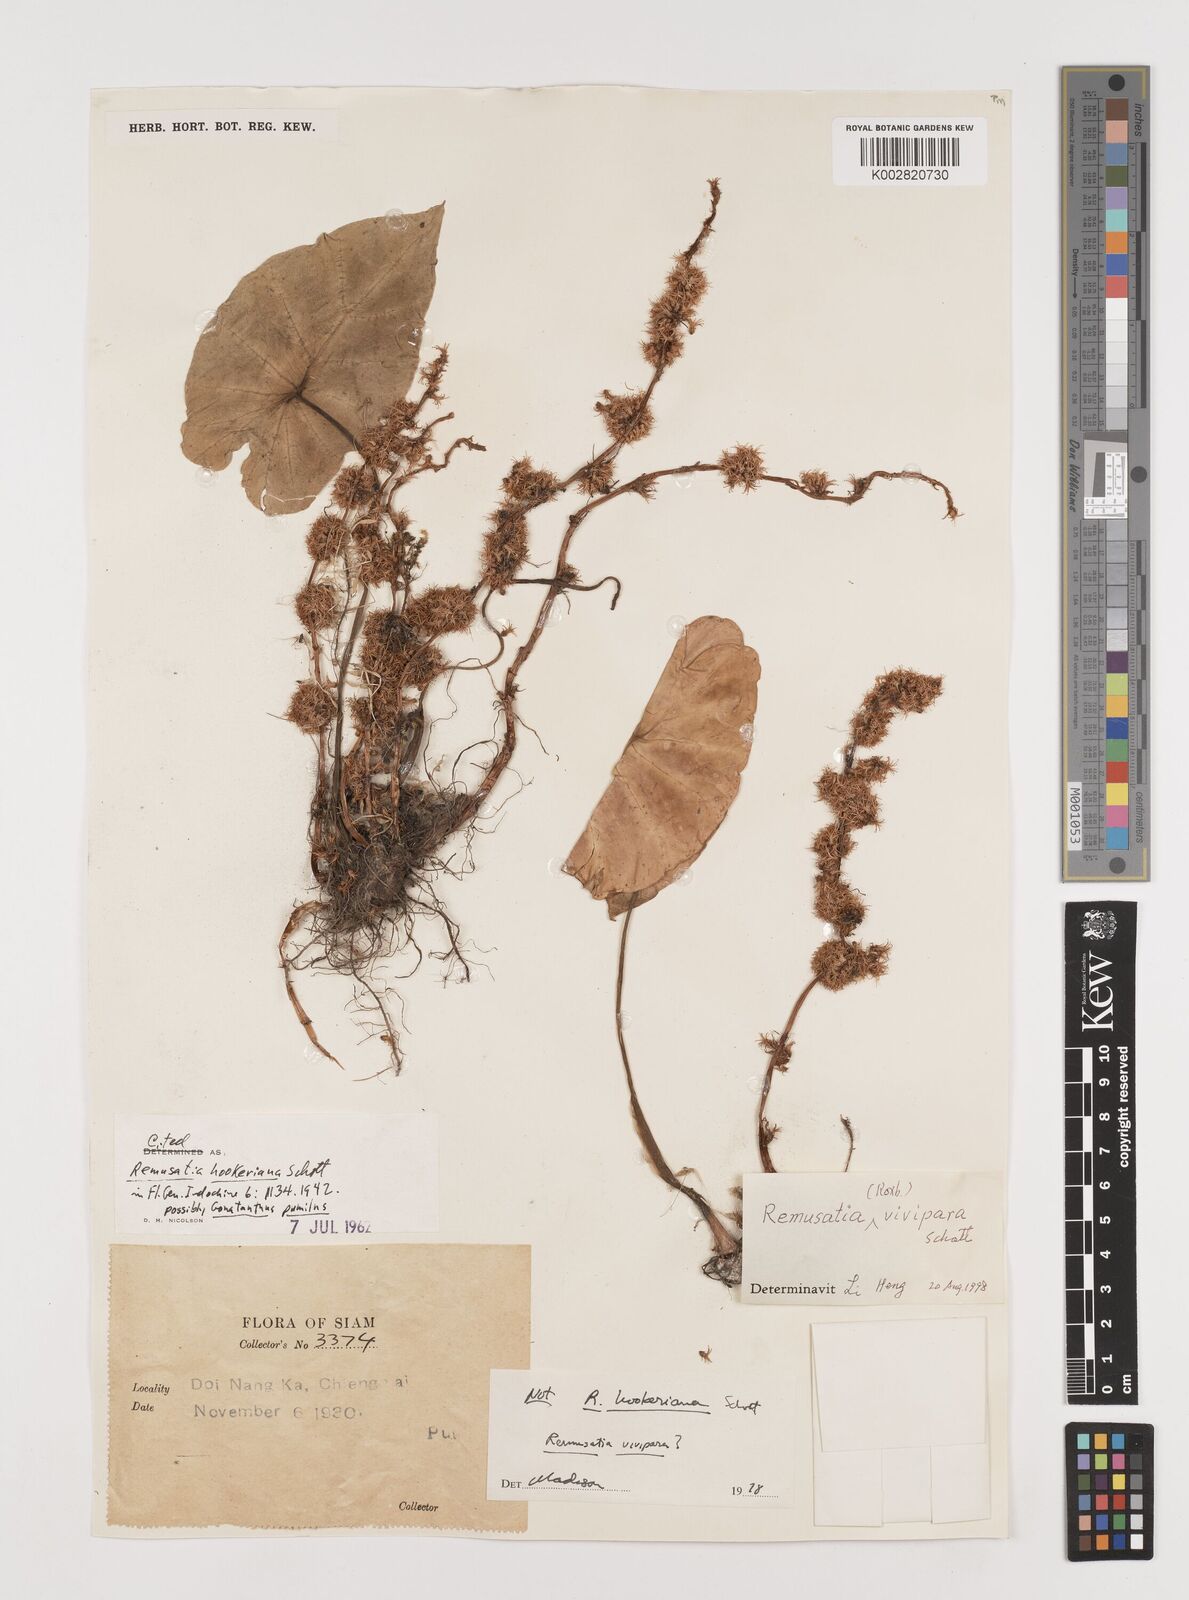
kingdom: Plantae
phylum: Tracheophyta
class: Liliopsida
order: Alismatales
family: Araceae
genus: Remusatia
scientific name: Remusatia vivipara
